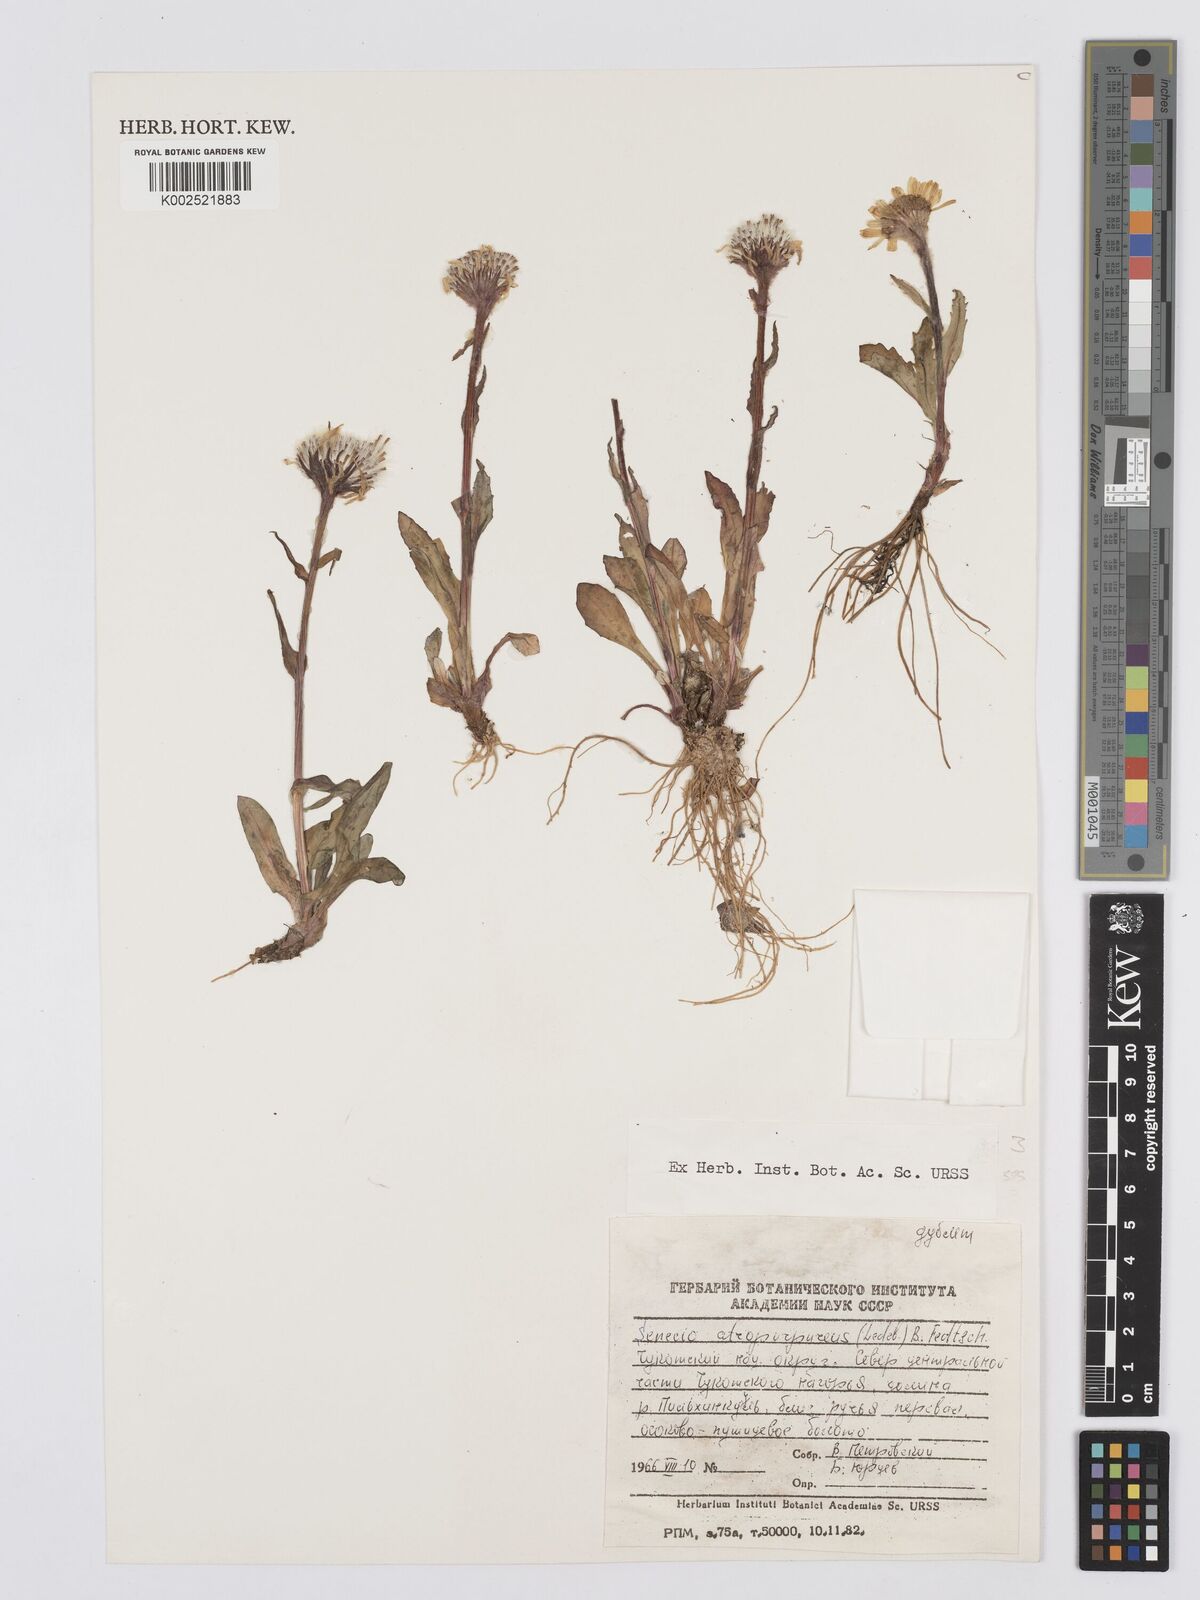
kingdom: Plantae
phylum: Tracheophyta
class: Magnoliopsida
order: Asterales
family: Asteraceae
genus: Tephroseris
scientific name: Tephroseris integrifolia
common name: Field fleawort
